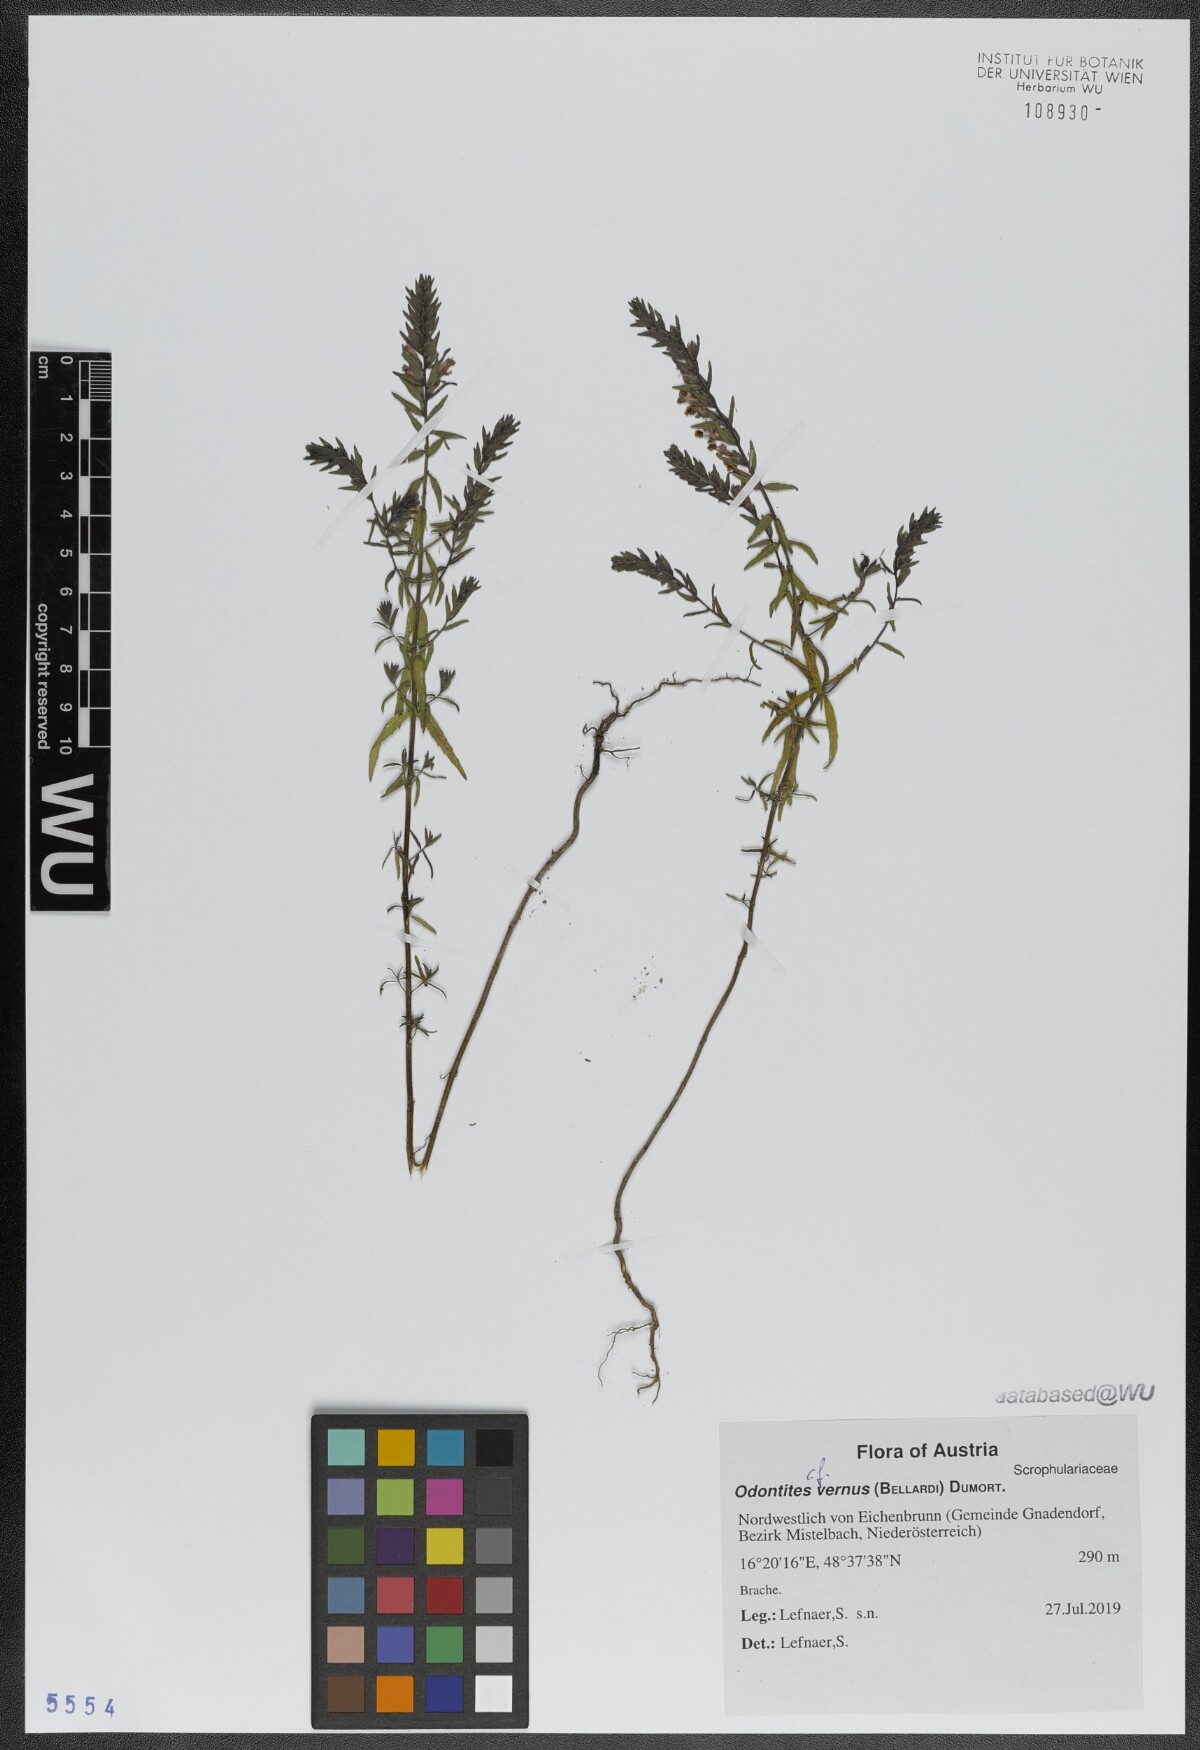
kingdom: Plantae
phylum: Tracheophyta
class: Magnoliopsida
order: Lamiales
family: Orobanchaceae
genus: Odontites
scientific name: Odontites vernus
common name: Red bartsia
